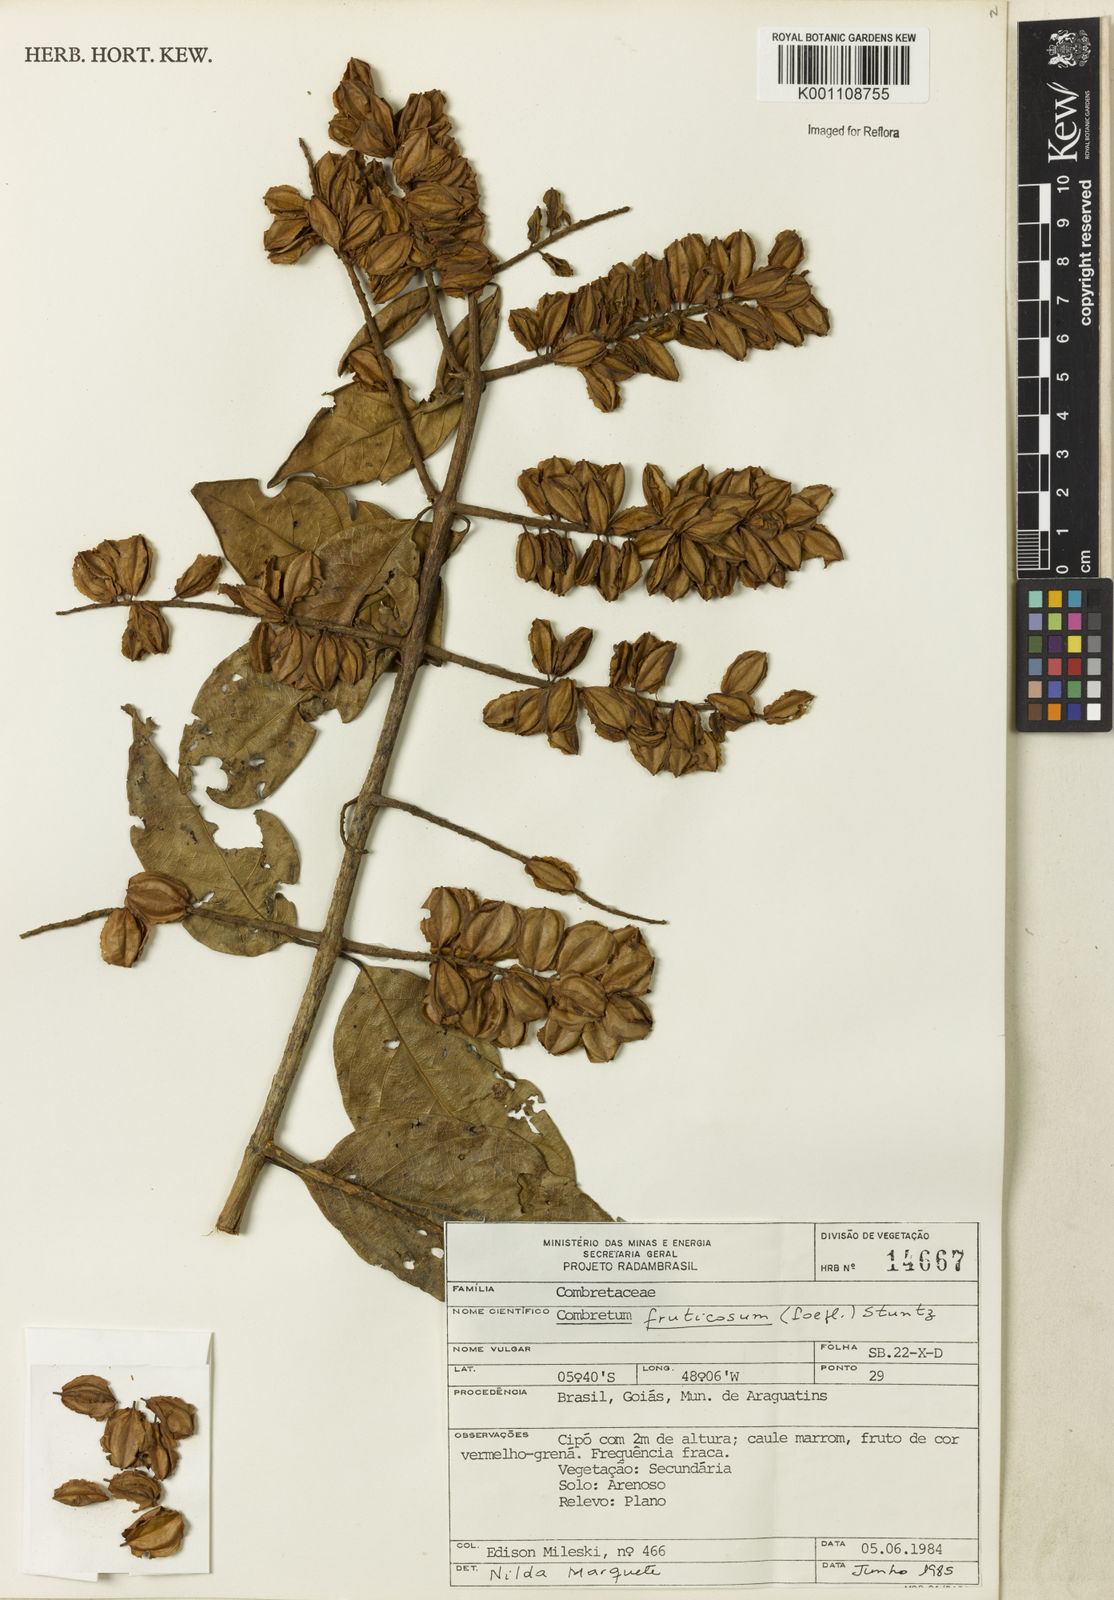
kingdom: Plantae
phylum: Tracheophyta
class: Magnoliopsida
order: Myrtales
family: Combretaceae
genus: Combretum
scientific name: Combretum fruticosum
